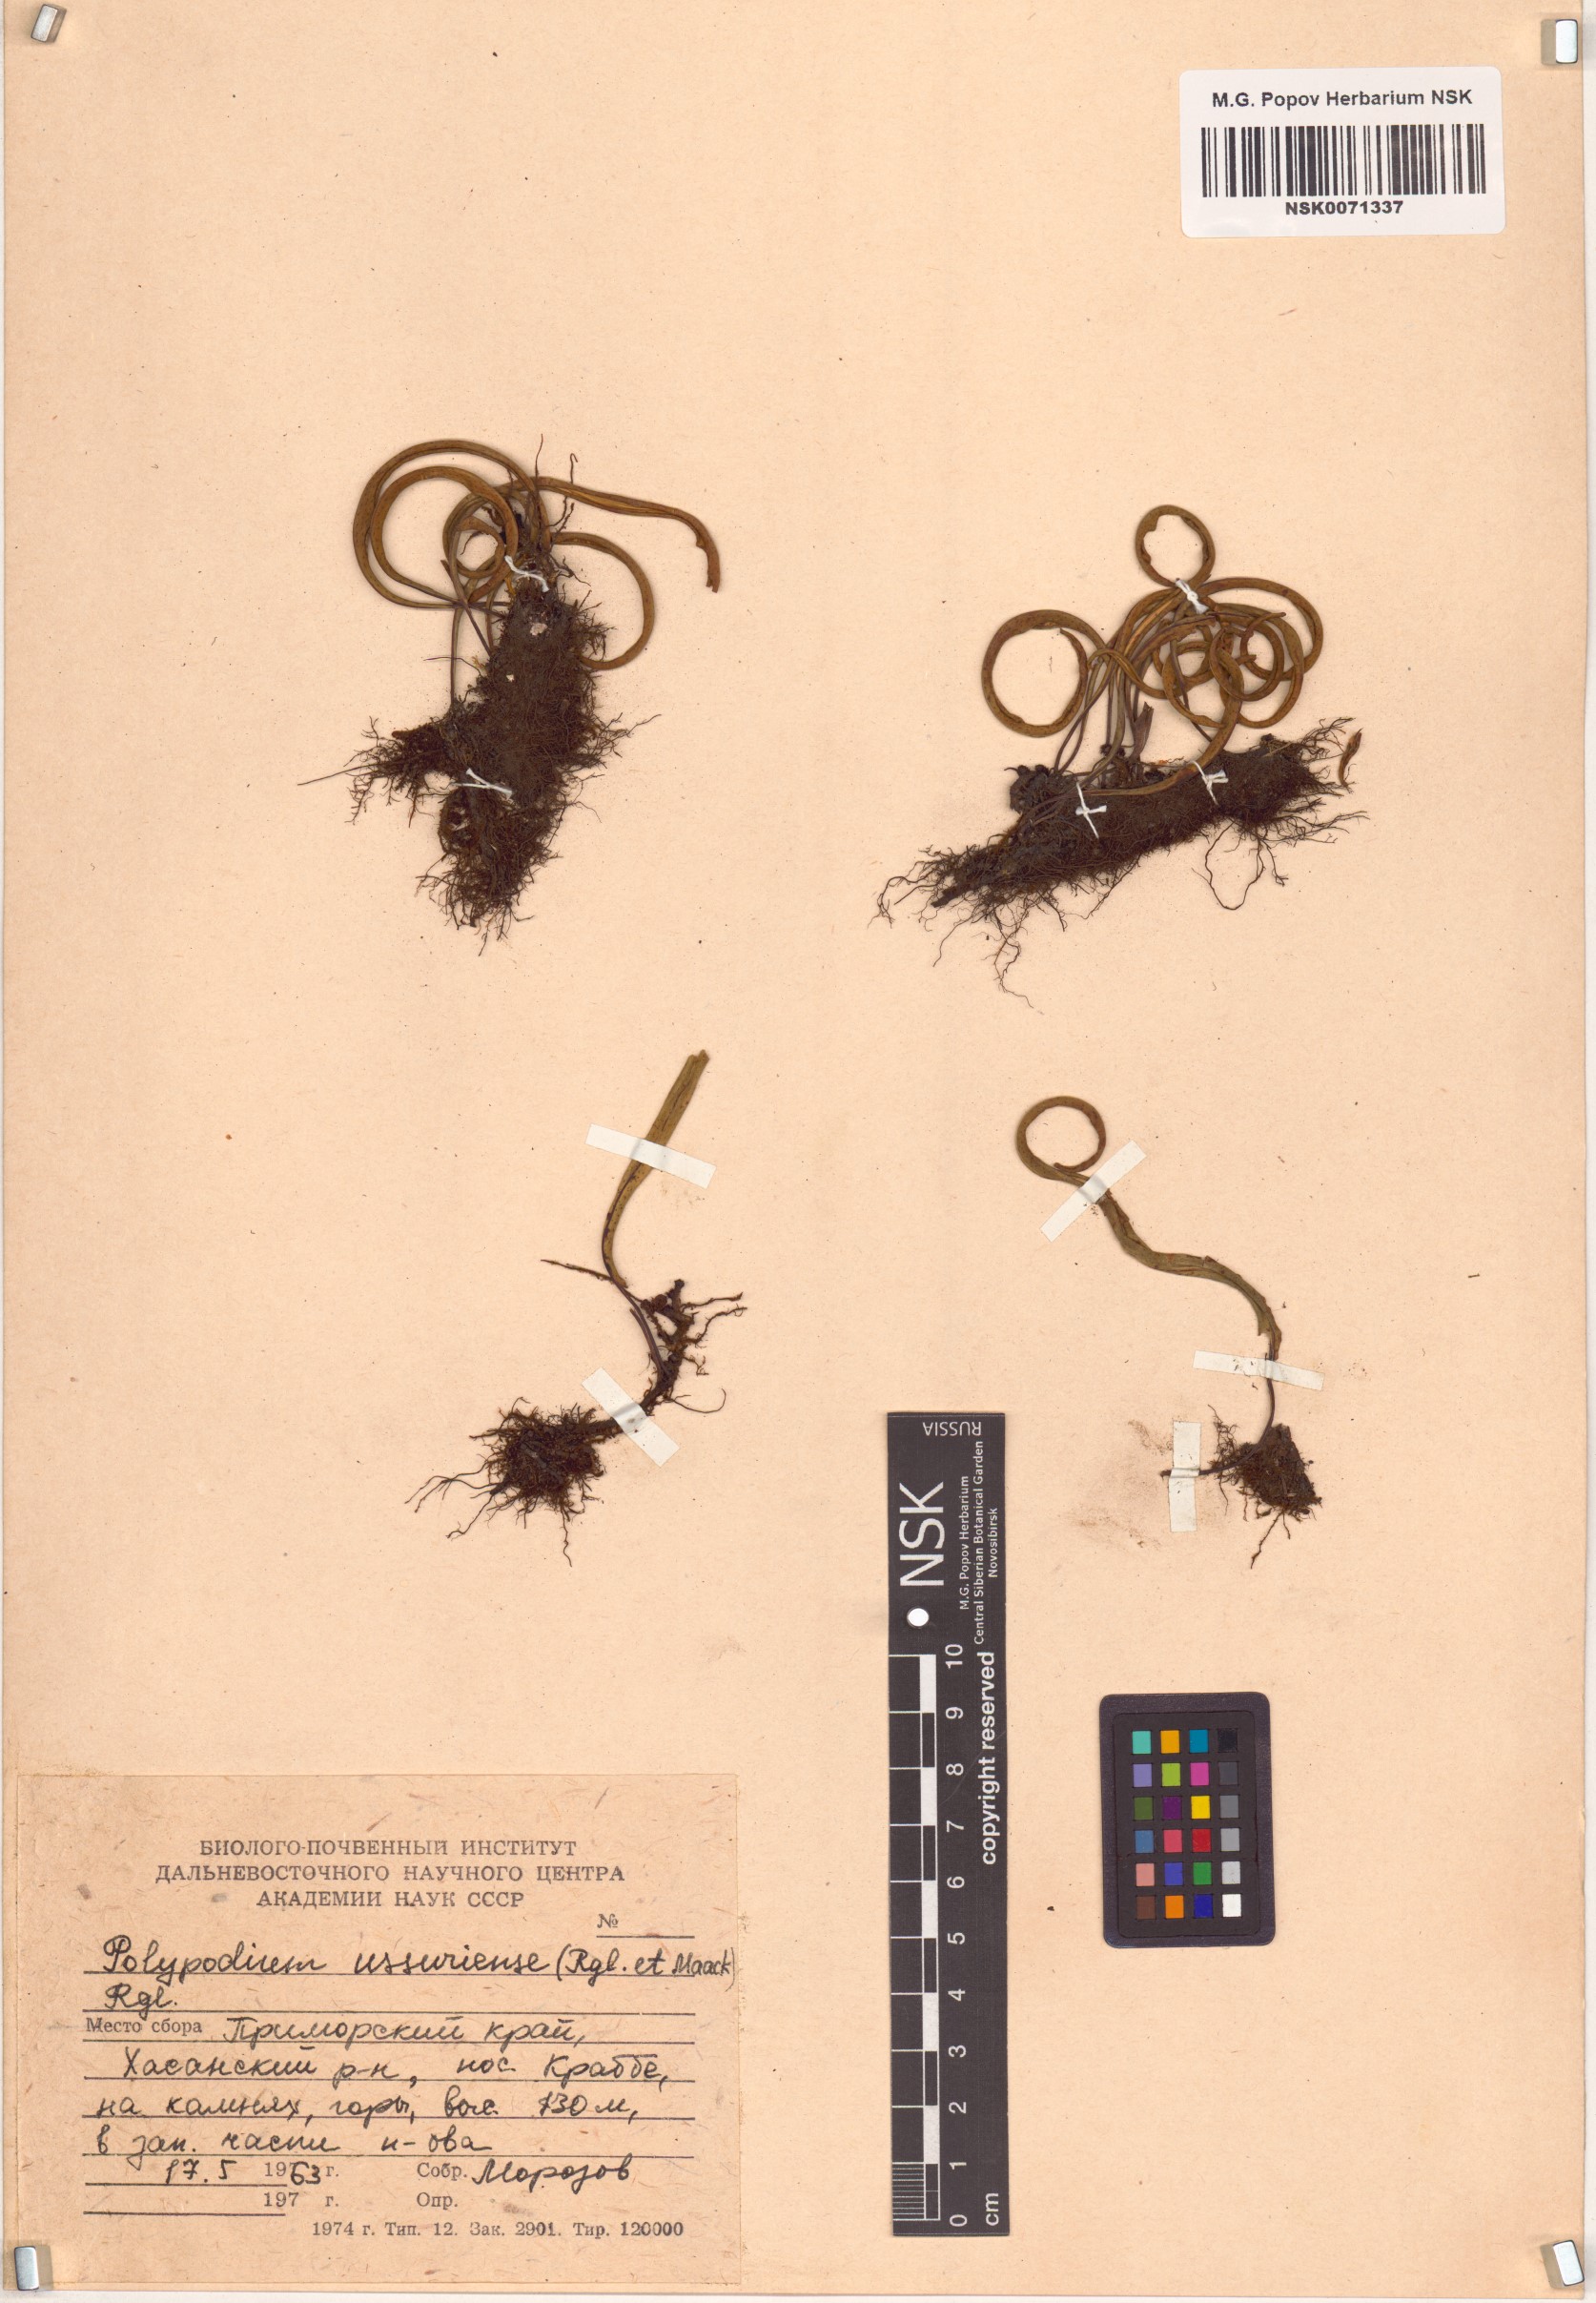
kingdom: Plantae
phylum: Tracheophyta
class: Polypodiopsida
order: Polypodiales
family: Polypodiaceae
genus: Lepisorus
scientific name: Lepisorus ussuriensis
